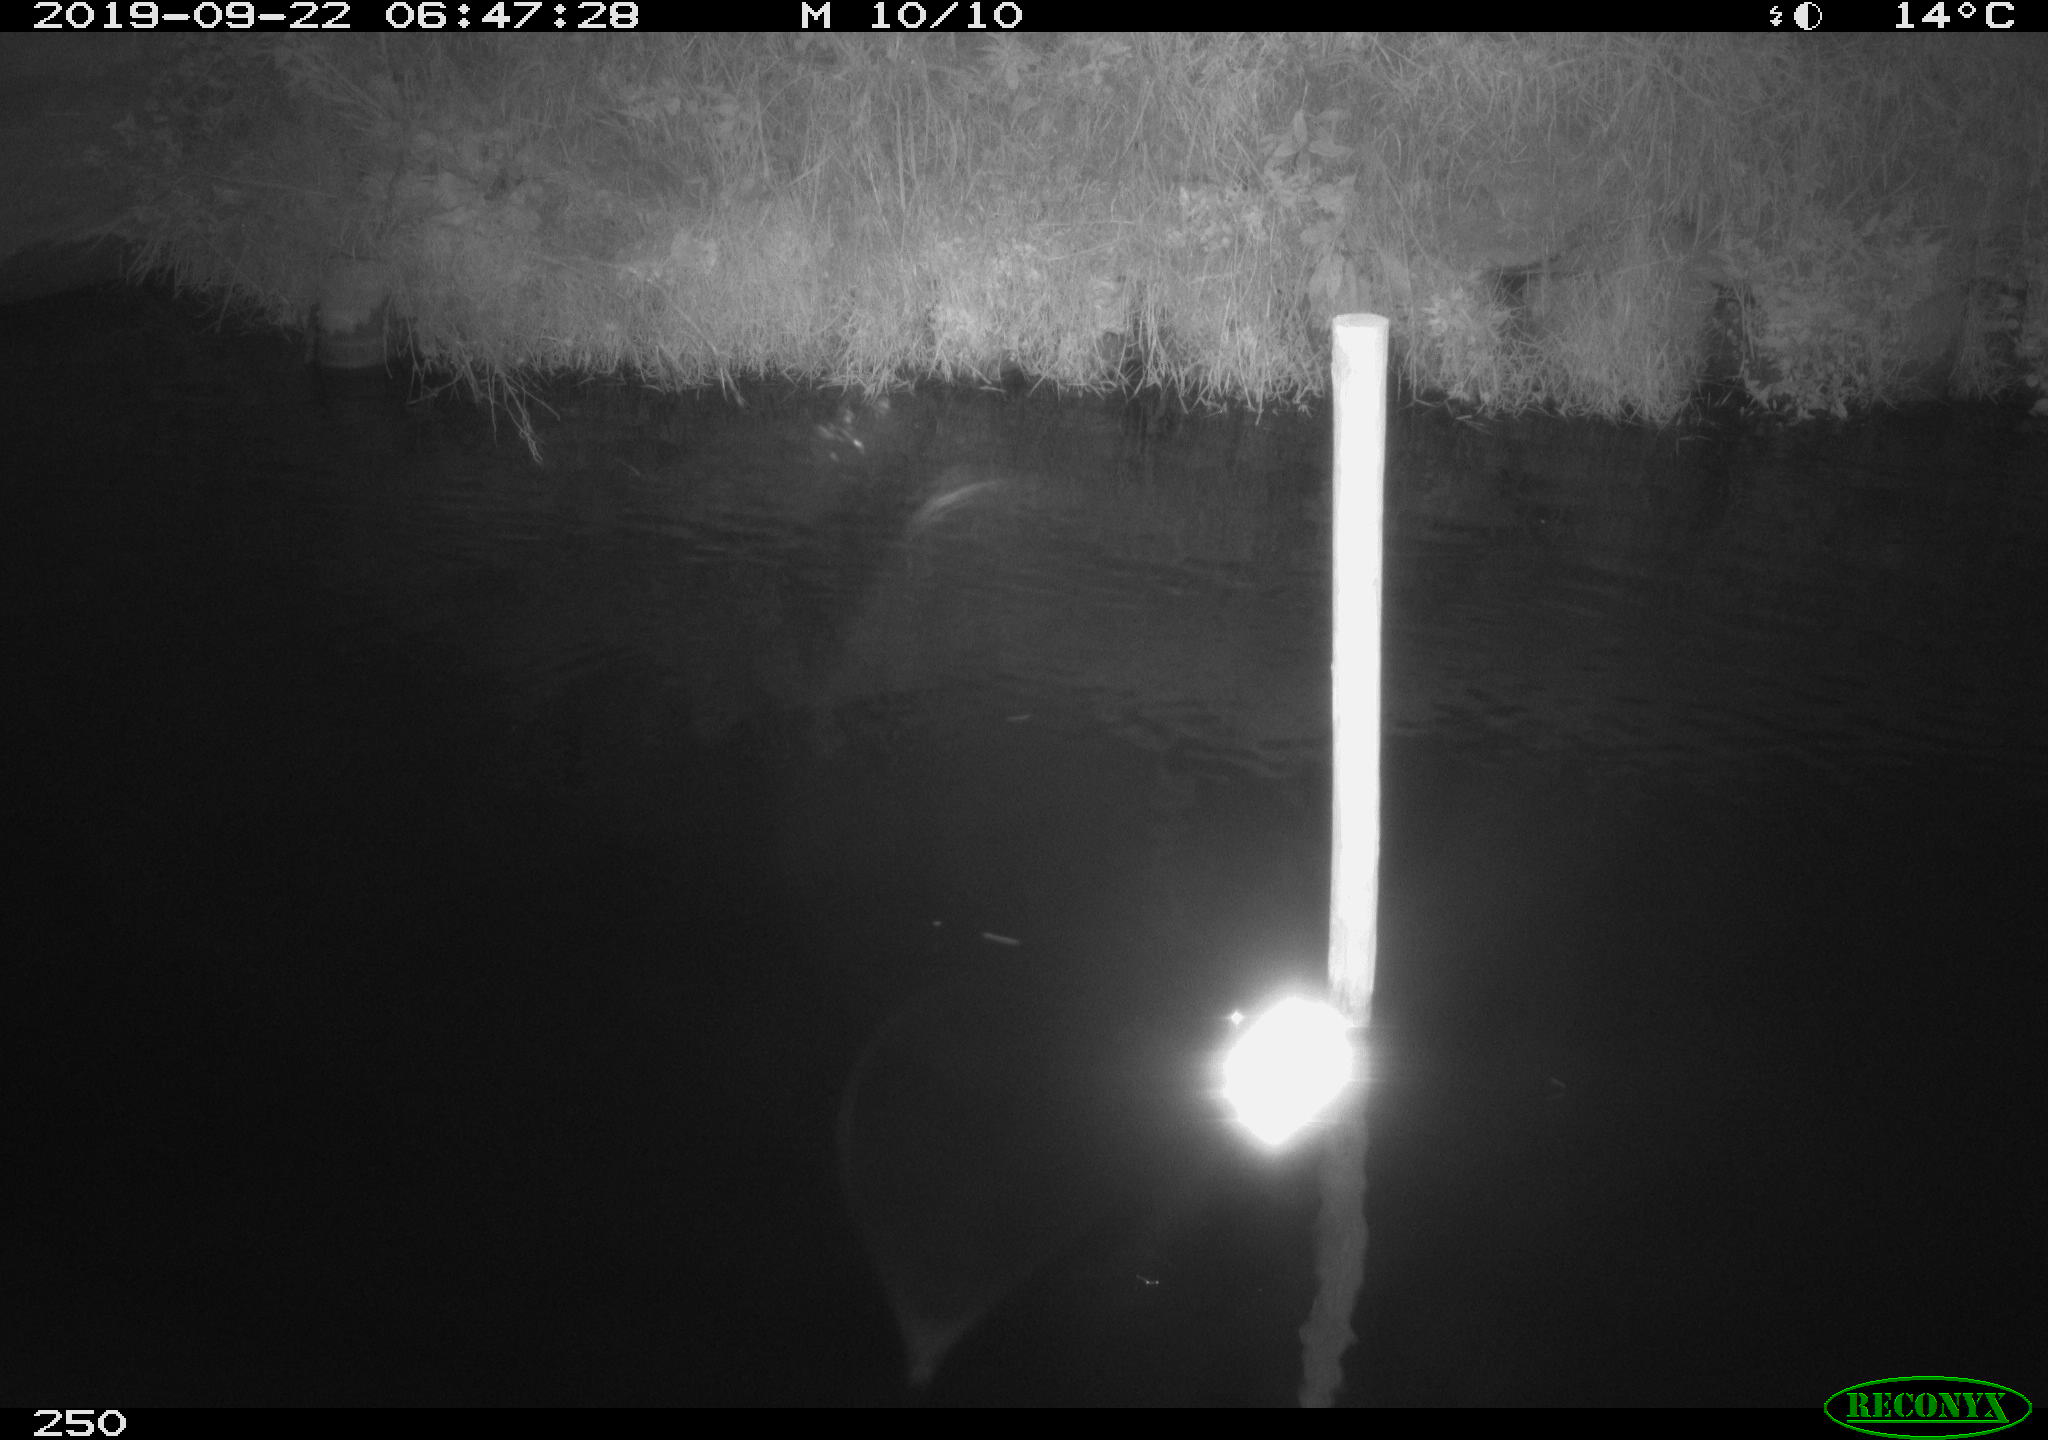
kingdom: Animalia
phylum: Chordata
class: Aves
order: Anseriformes
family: Anatidae
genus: Anas
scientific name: Anas platyrhynchos
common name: Mallard
